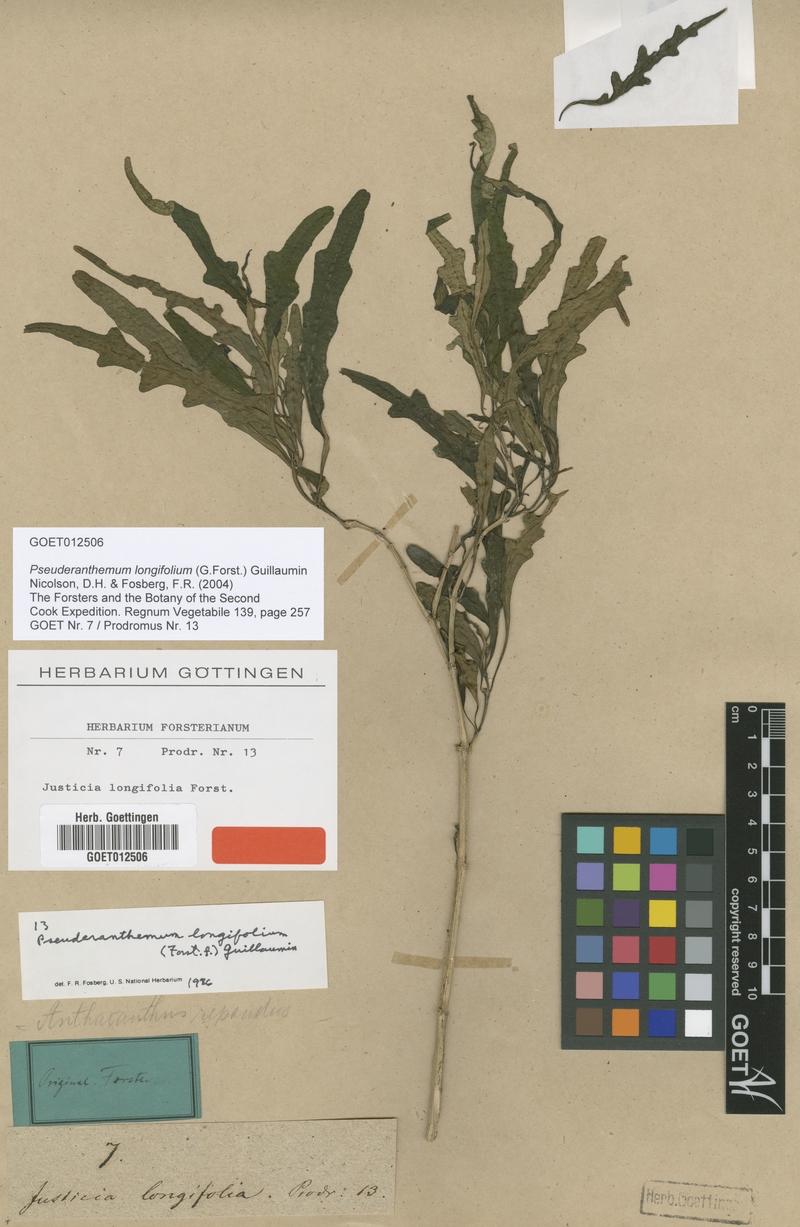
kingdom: Plantae
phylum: Tracheophyta
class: Magnoliopsida
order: Lamiales
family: Acanthaceae
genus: Pseuderanthemum
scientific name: Pseuderanthemum longifolium
